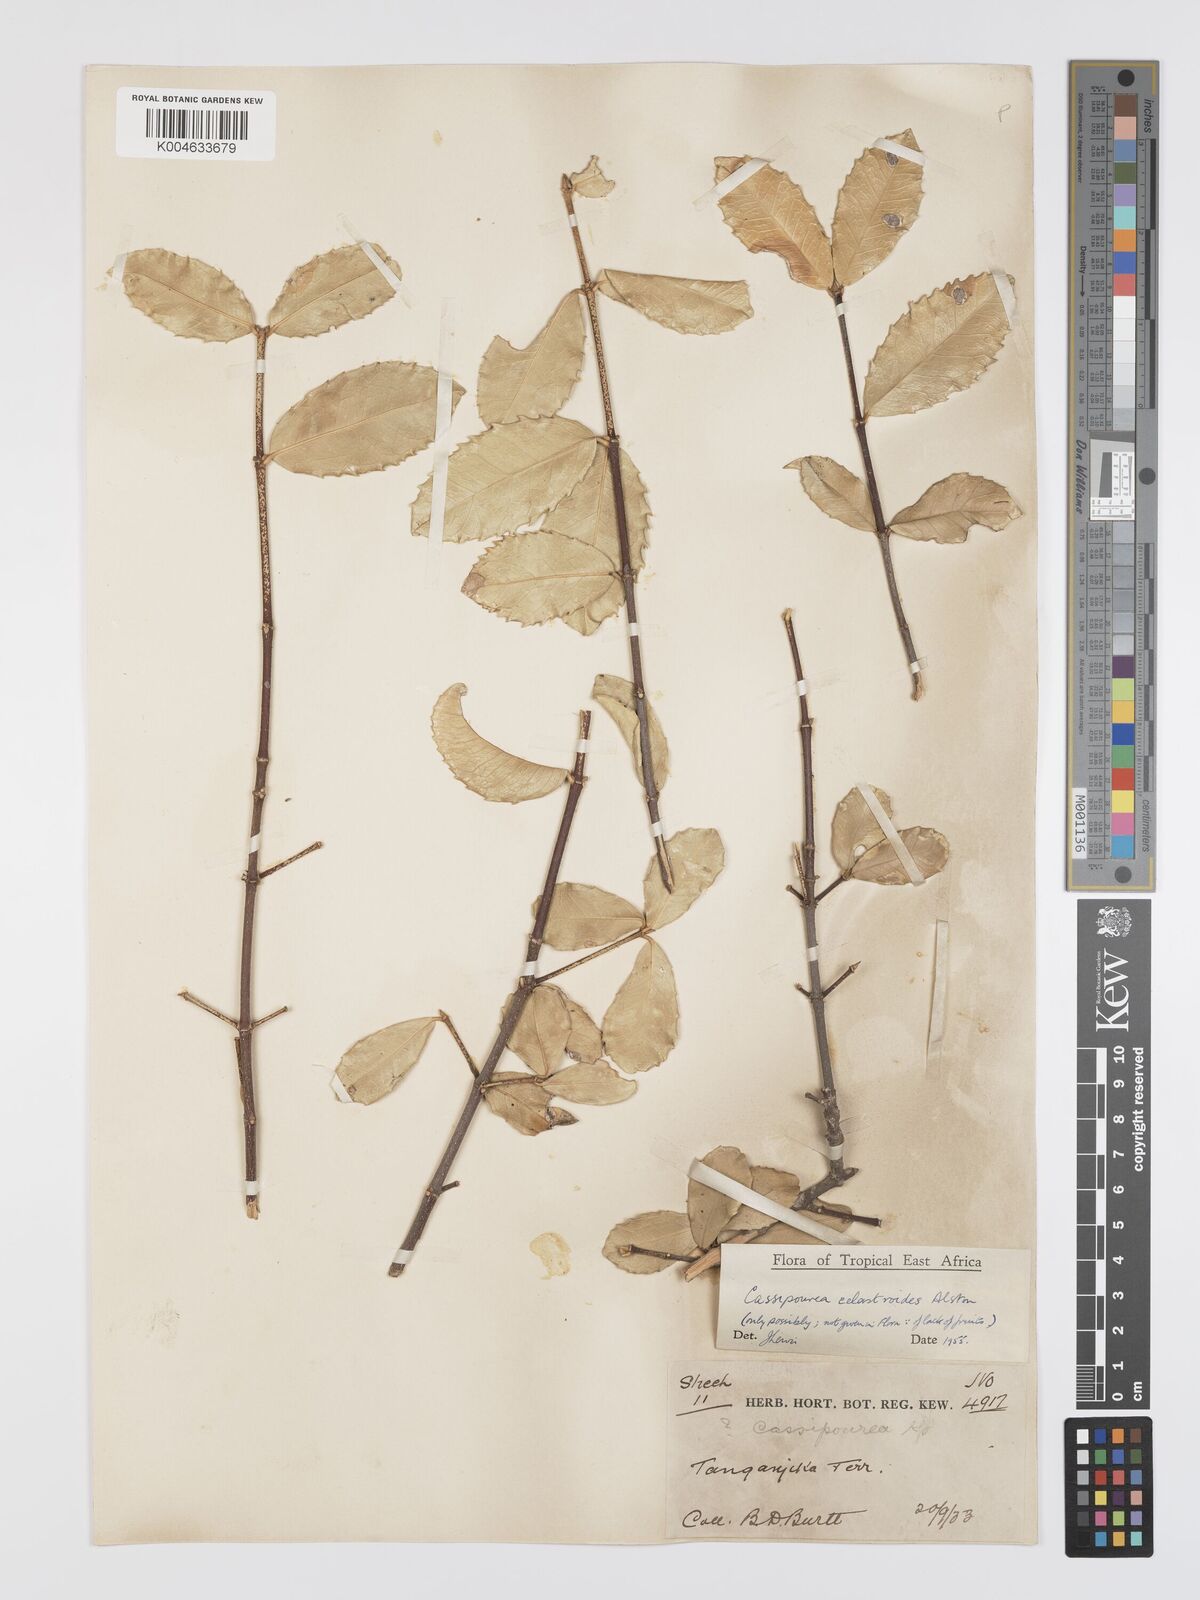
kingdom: Plantae
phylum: Tracheophyta
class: Magnoliopsida
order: Malpighiales
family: Rhizophoraceae
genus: Cassipourea
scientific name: Cassipourea celastroides
